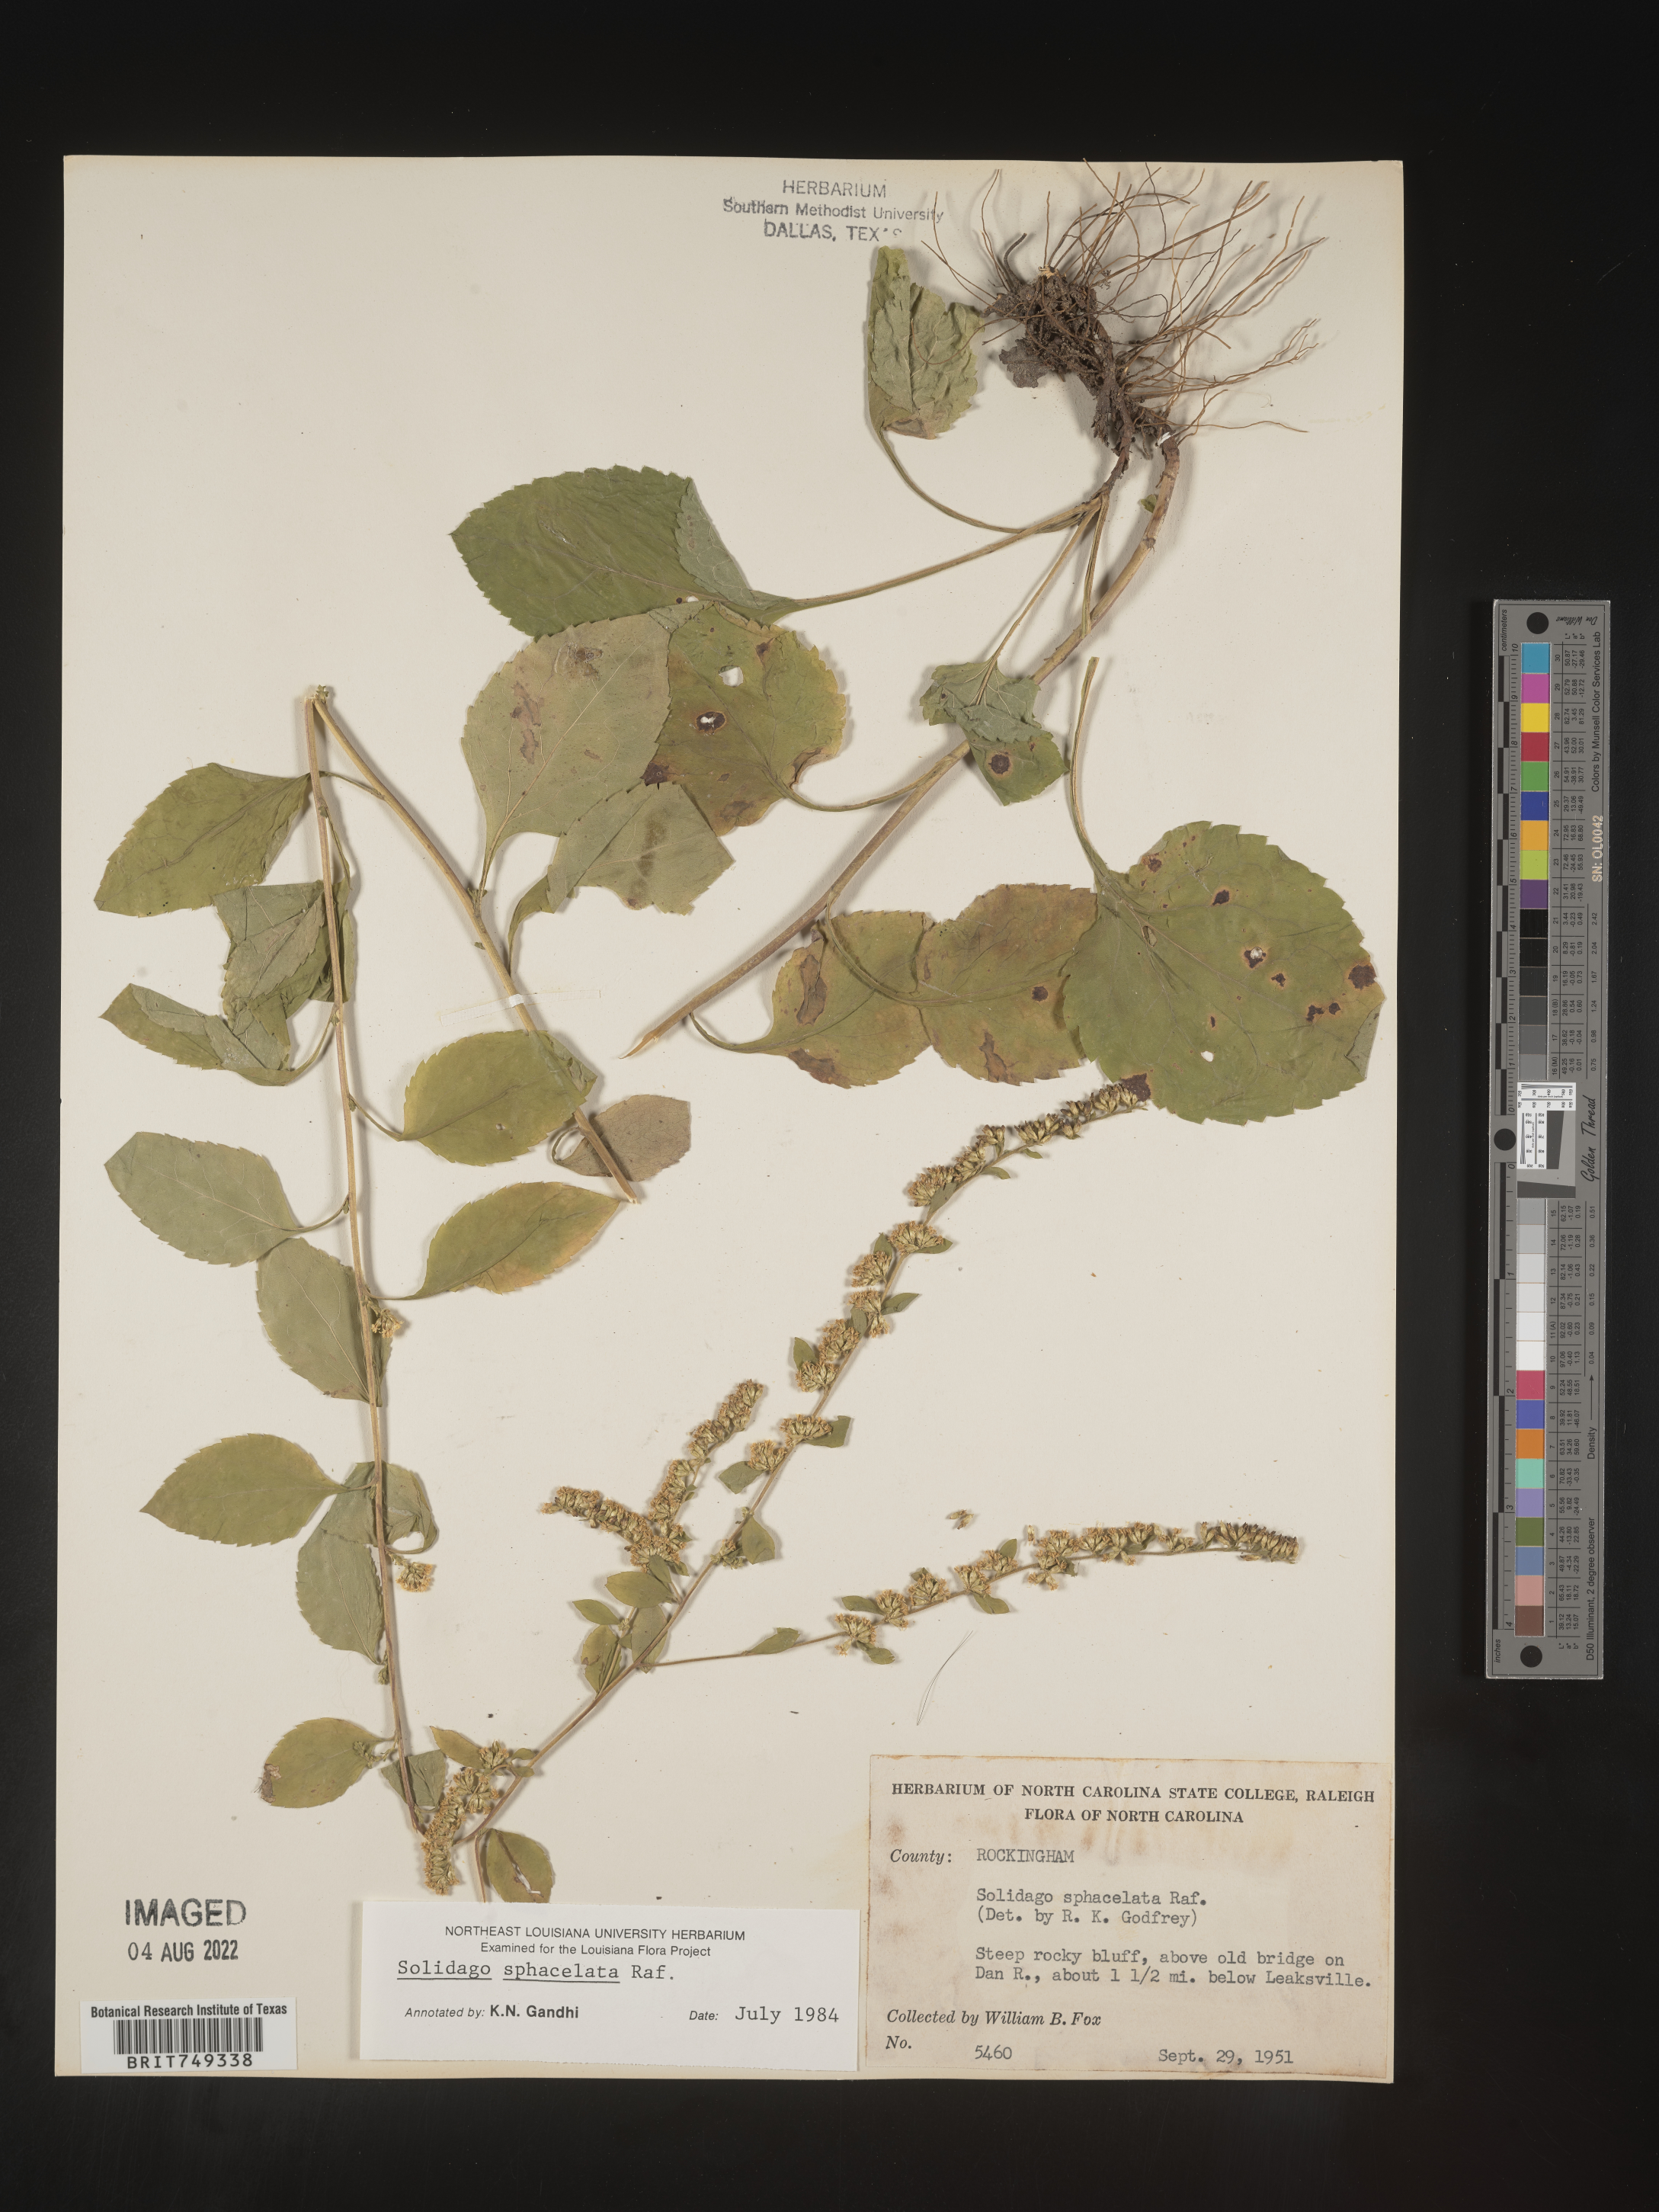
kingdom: Plantae
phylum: Tracheophyta
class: Magnoliopsida
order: Asterales
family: Asteraceae
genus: Solidago
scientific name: Solidago sphacelata
